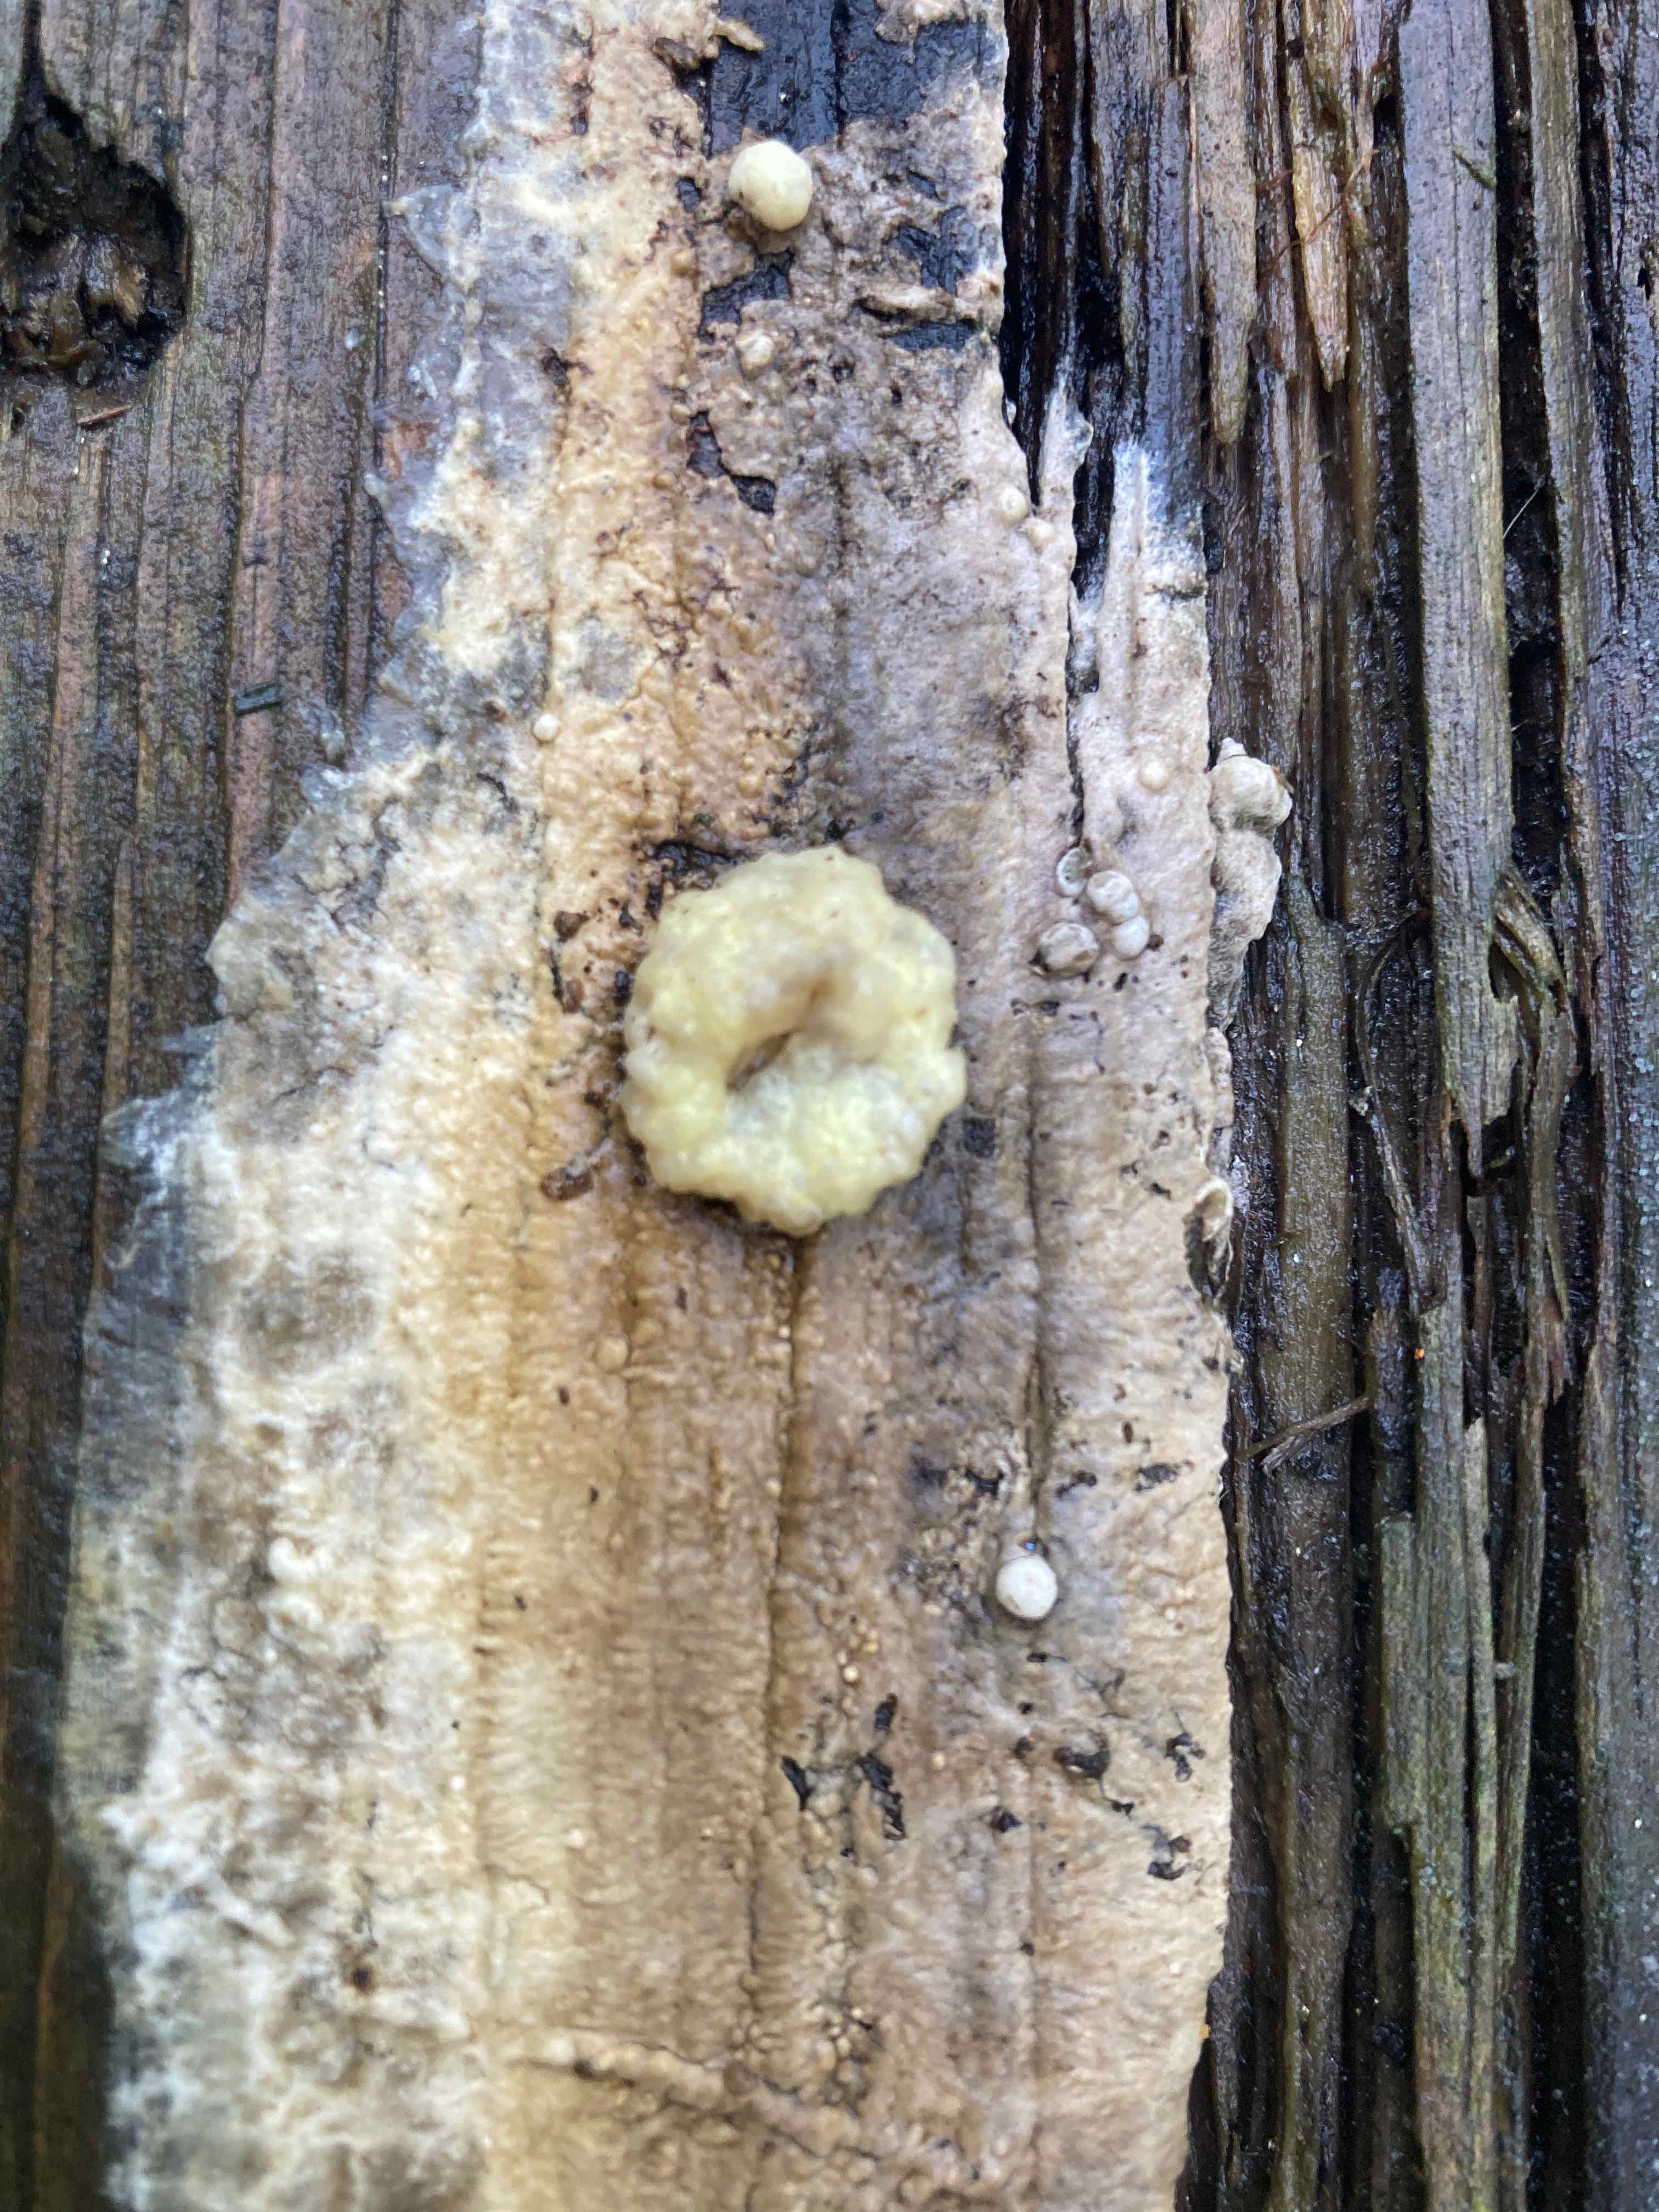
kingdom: Fungi
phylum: Ascomycota
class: Sordariomycetes
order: Xylariales
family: Hypoxylaceae
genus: Nodulisporium
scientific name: Nodulisporium cecidiogenes
